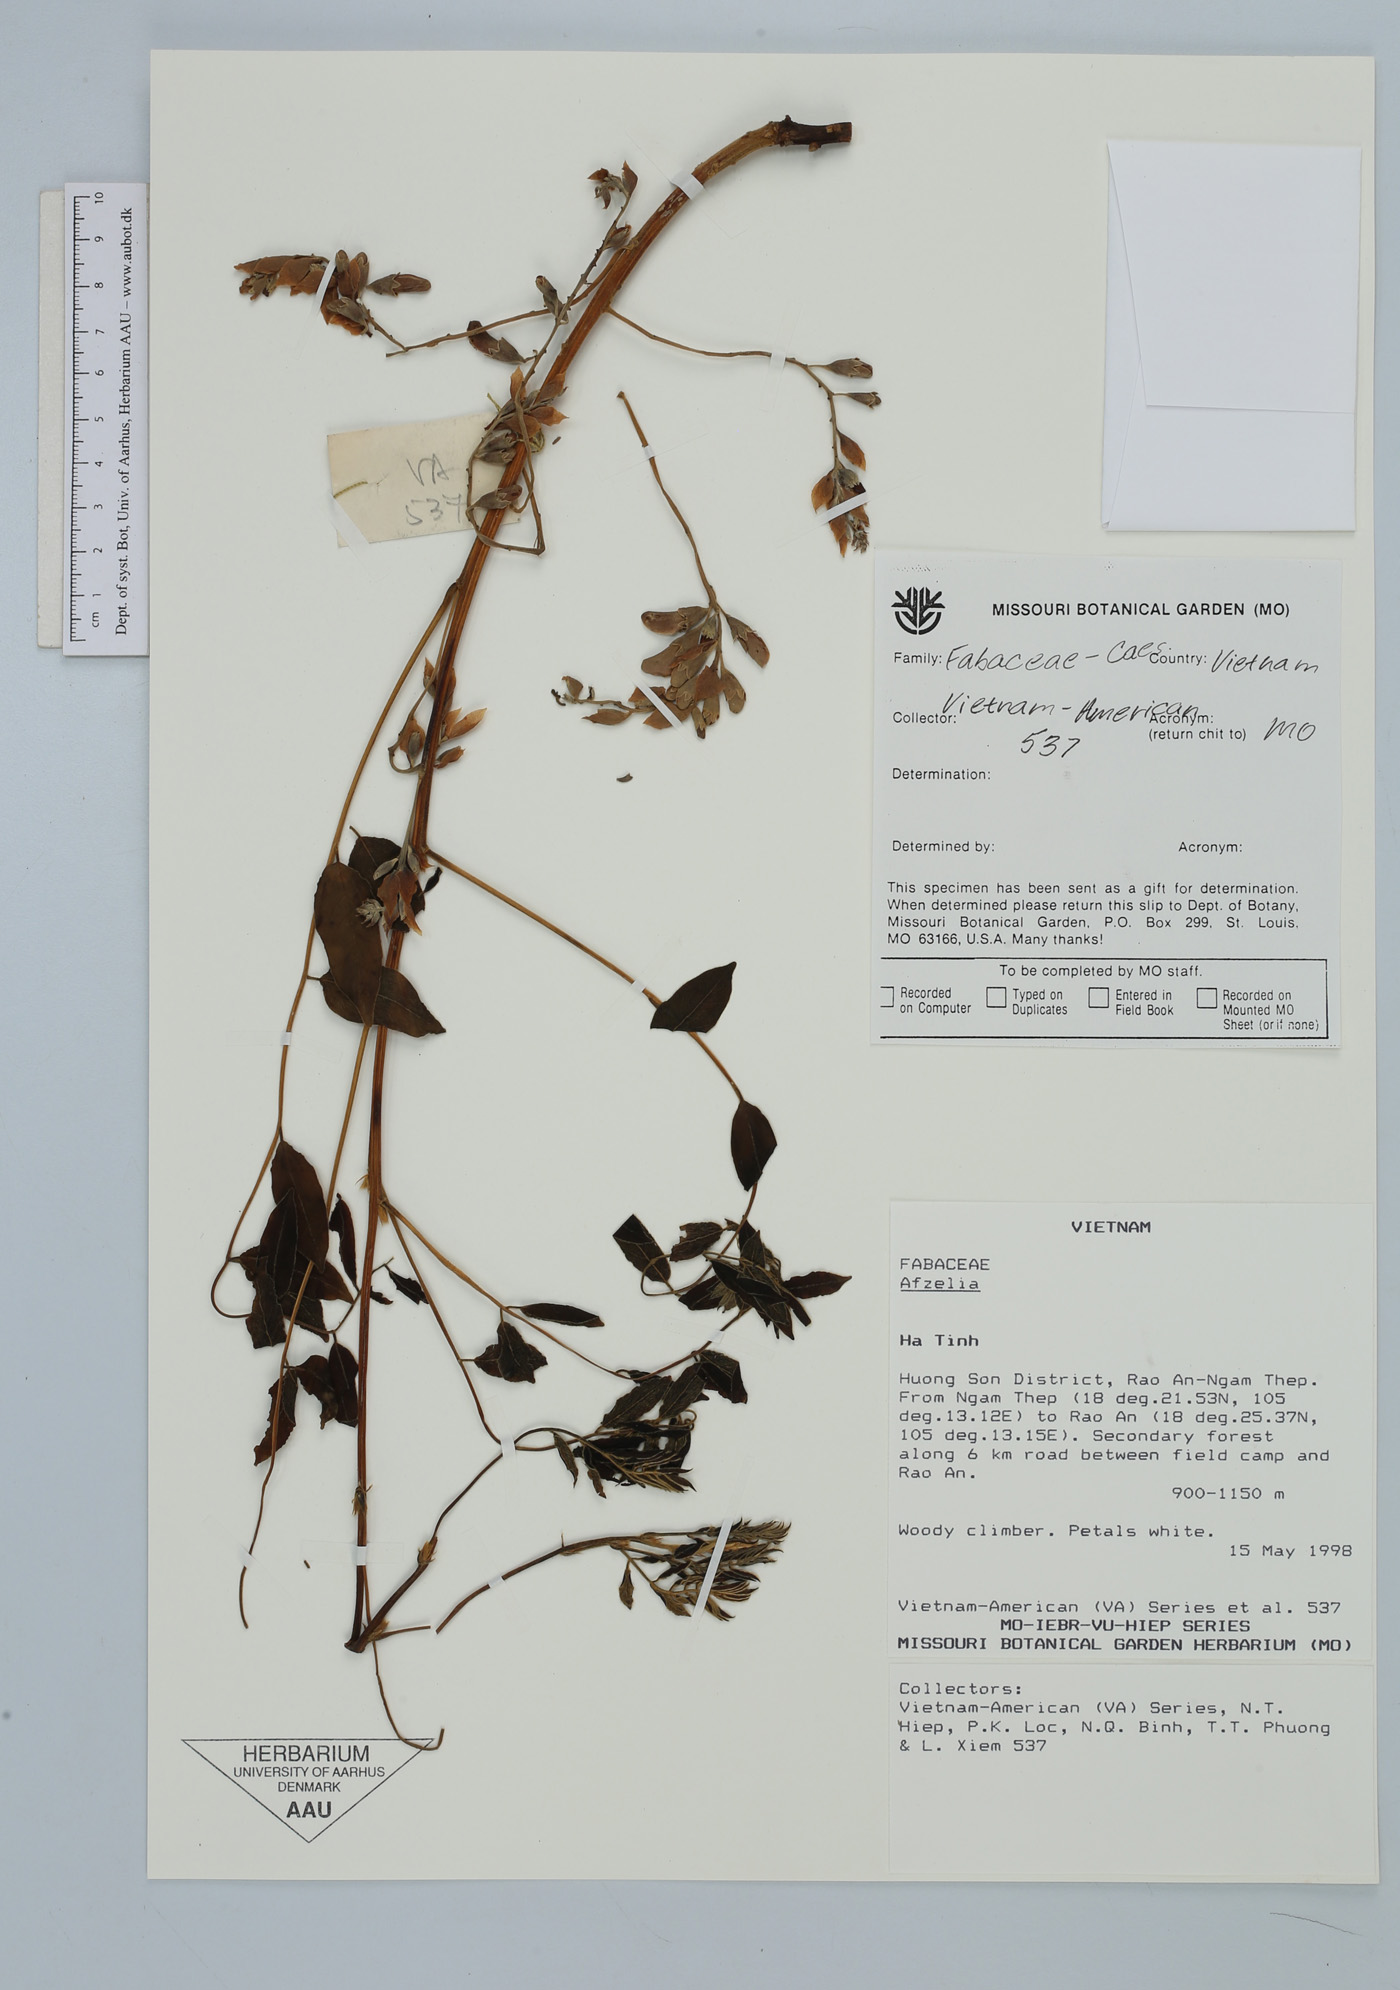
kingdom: Plantae
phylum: Tracheophyta
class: Magnoliopsida
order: Fabales
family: Fabaceae
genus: Afzelia
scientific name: Afzelia
